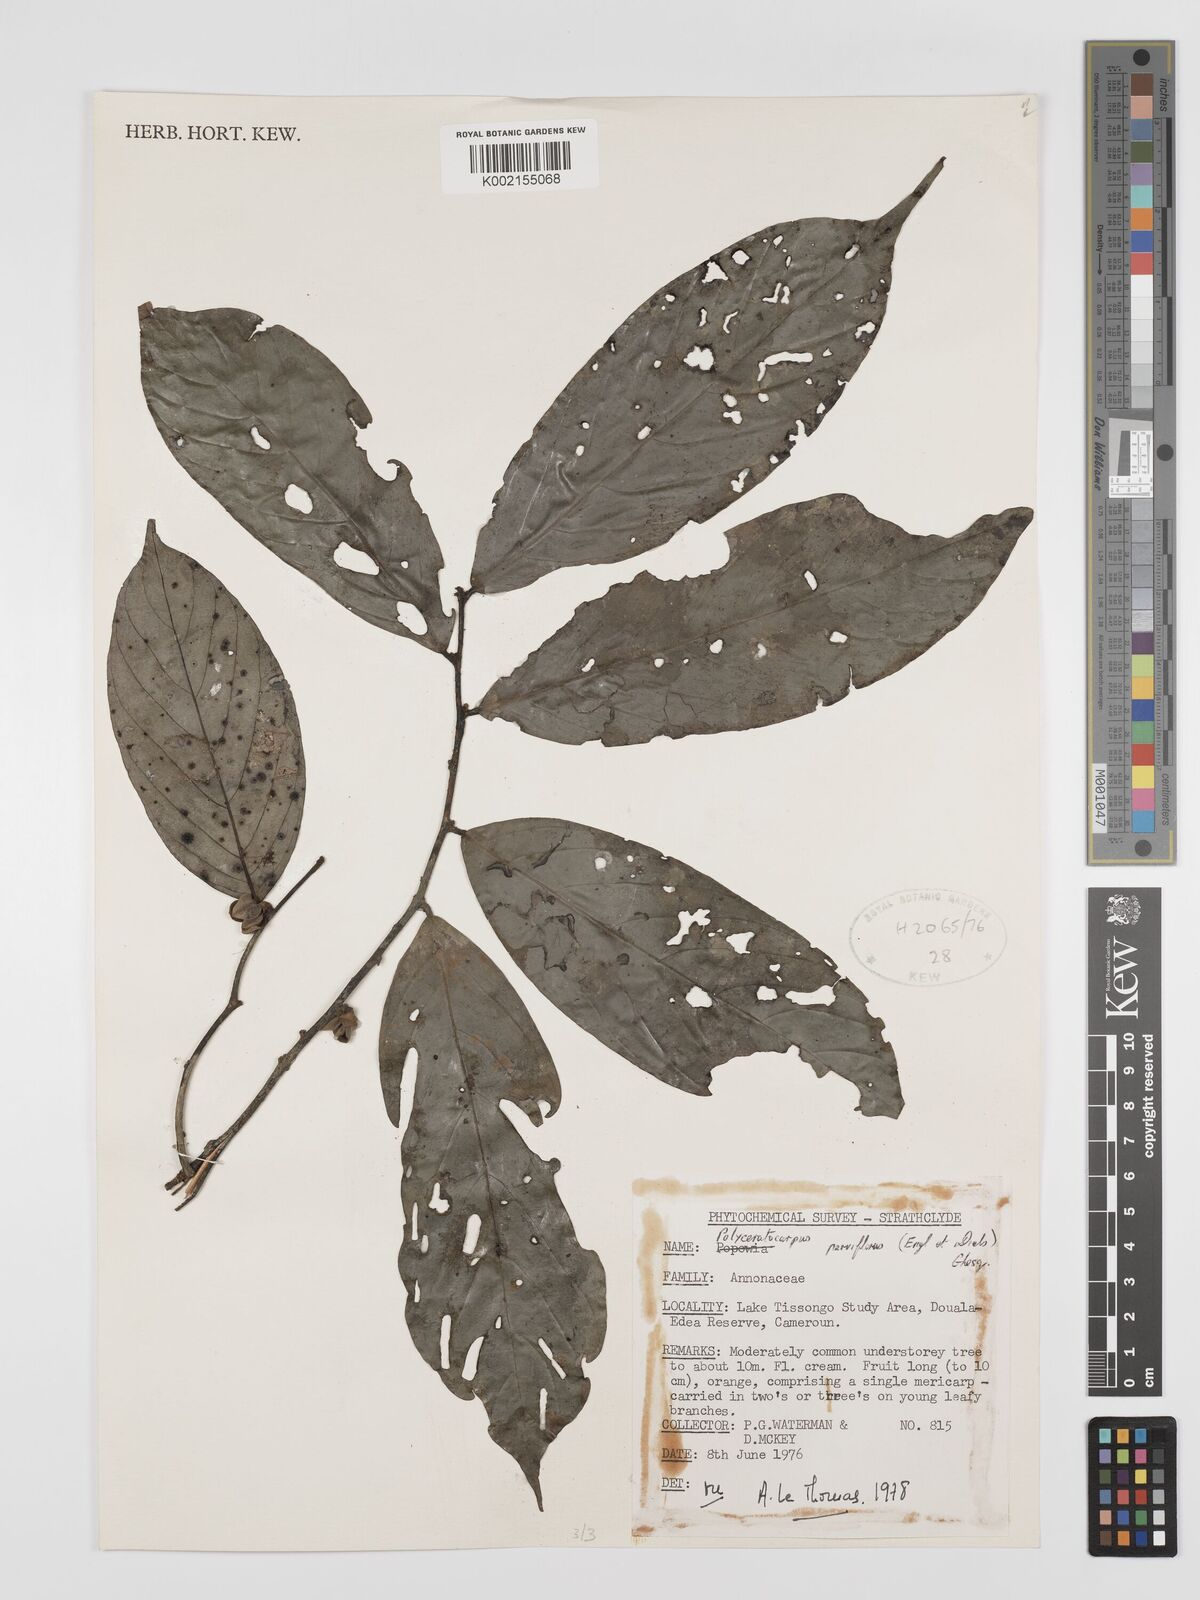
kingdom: Plantae
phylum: Tracheophyta
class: Magnoliopsida
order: Magnoliales
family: Annonaceae
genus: Polyceratocarpus
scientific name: Polyceratocarpus parviflorus
